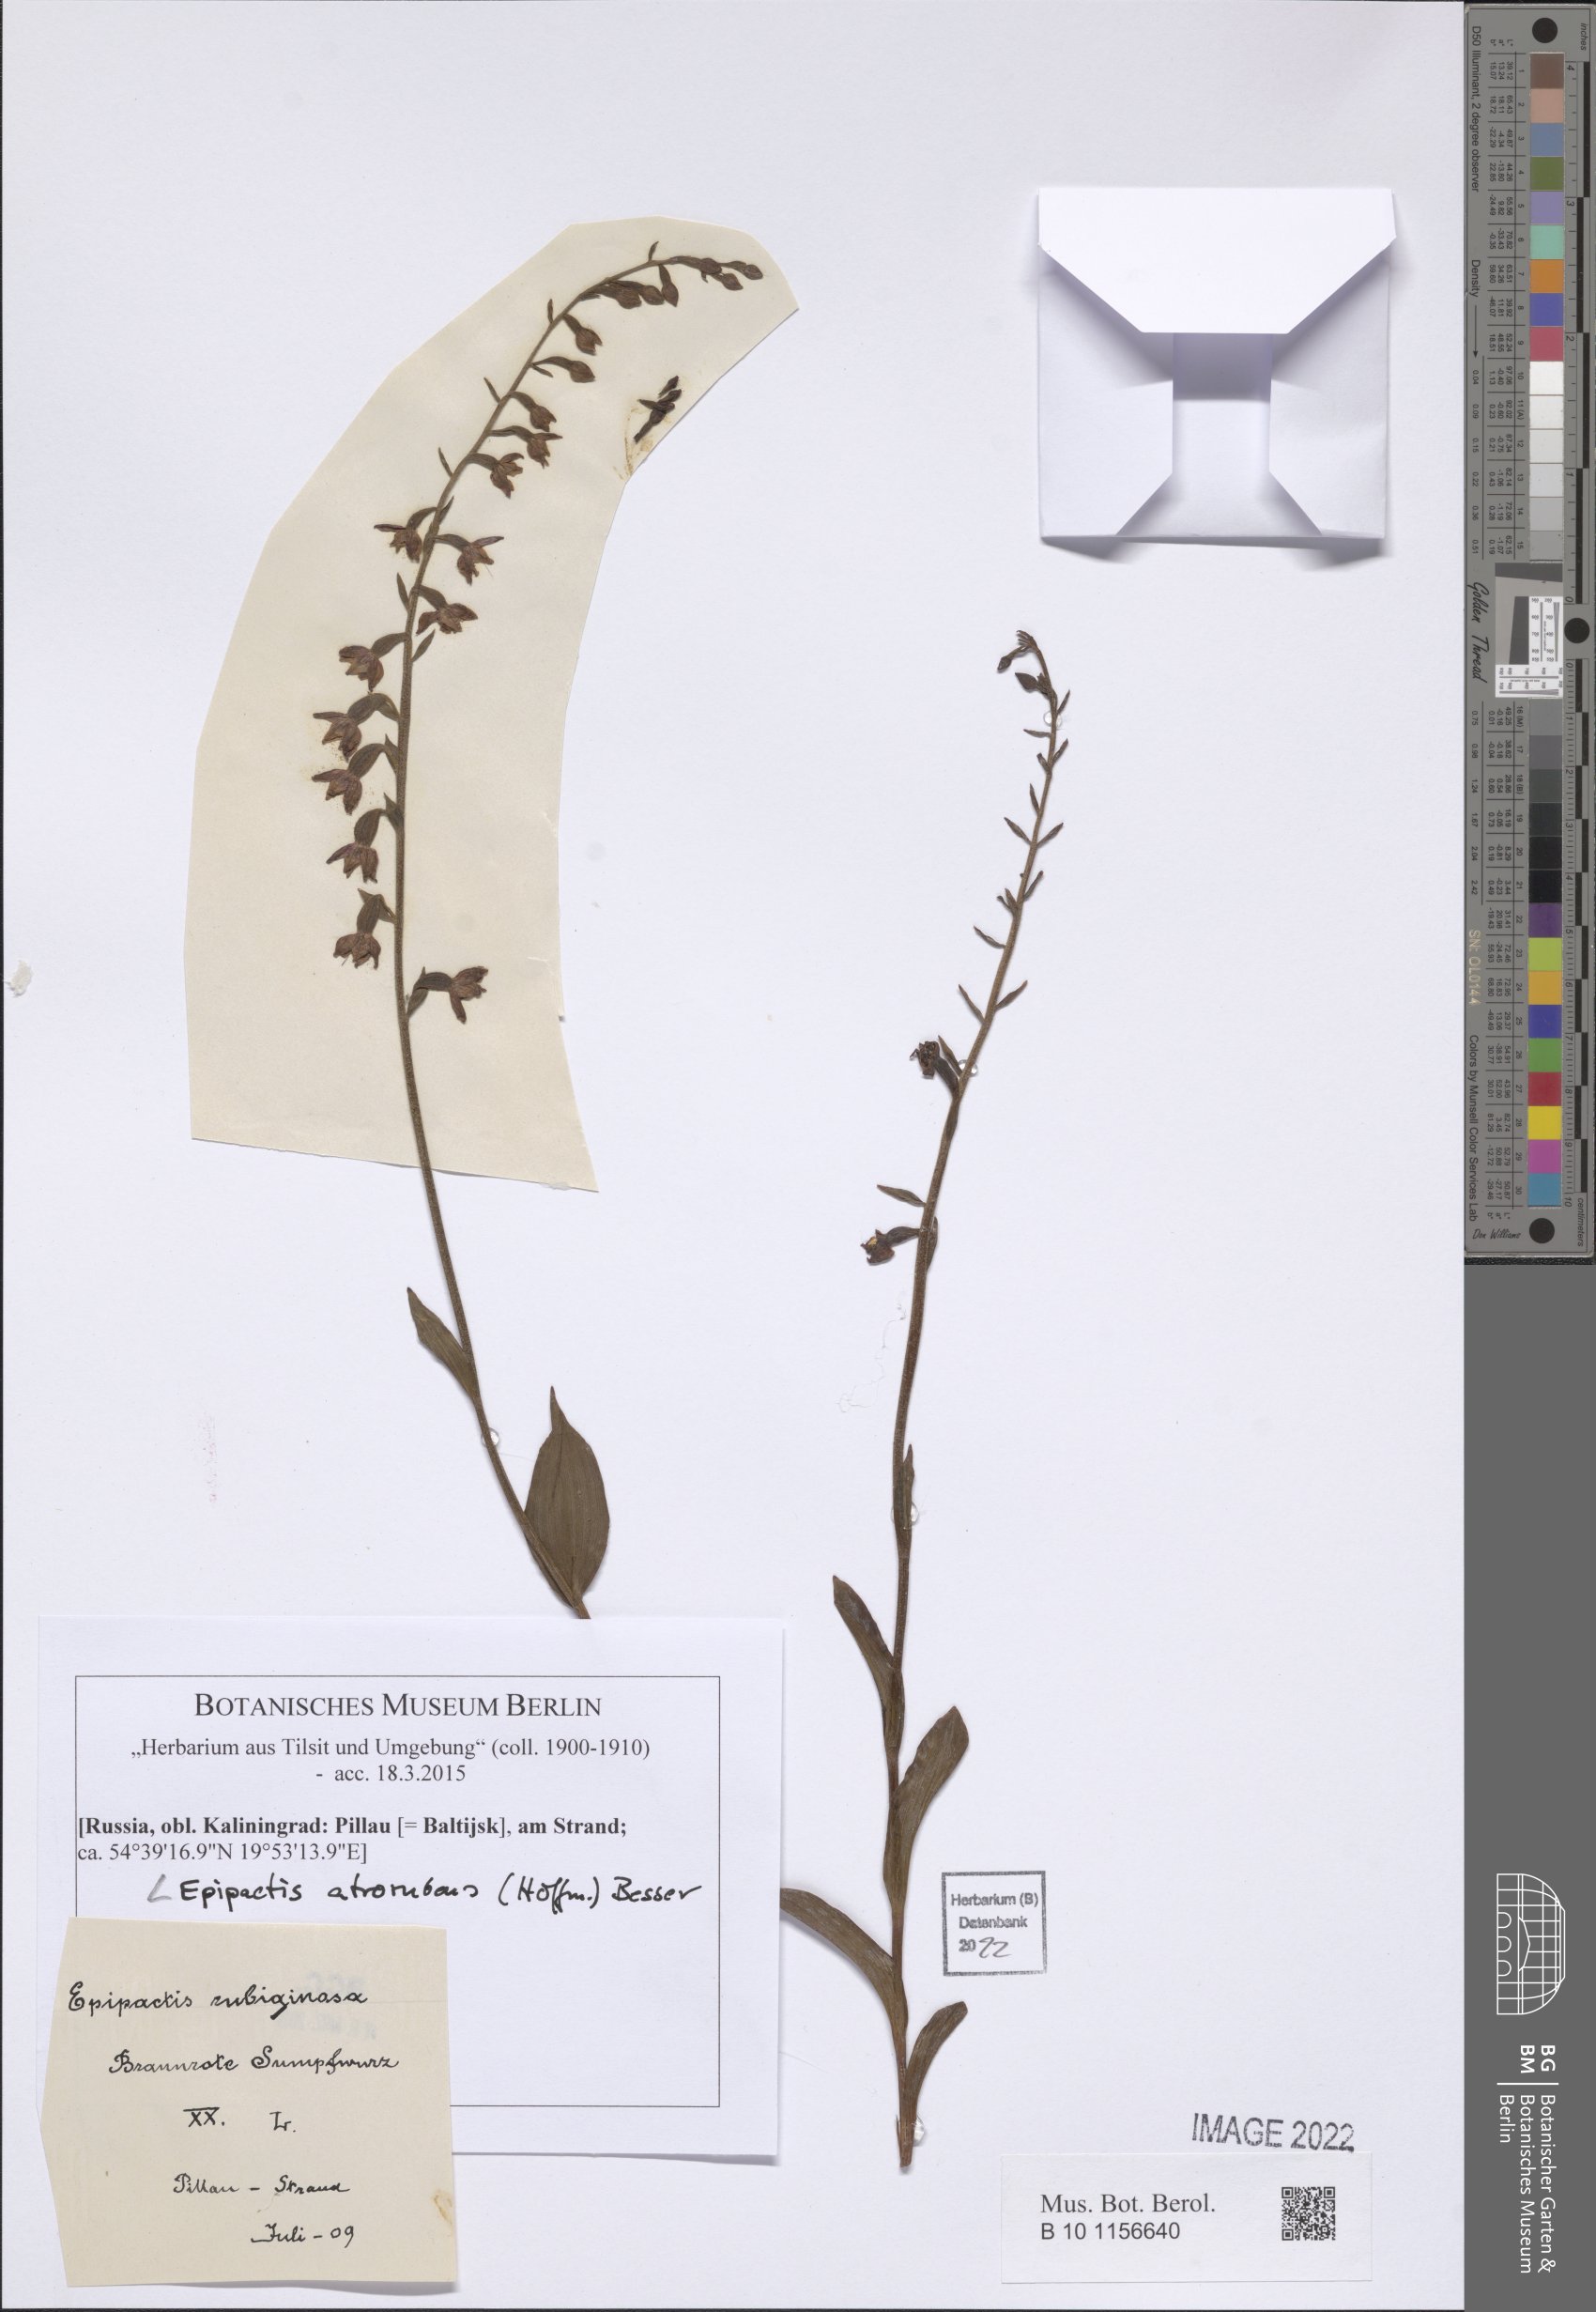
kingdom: Plantae
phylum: Tracheophyta
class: Liliopsida
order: Asparagales
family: Orchidaceae
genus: Epipactis
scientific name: Epipactis atrorubens
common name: Dark-red helleborine
